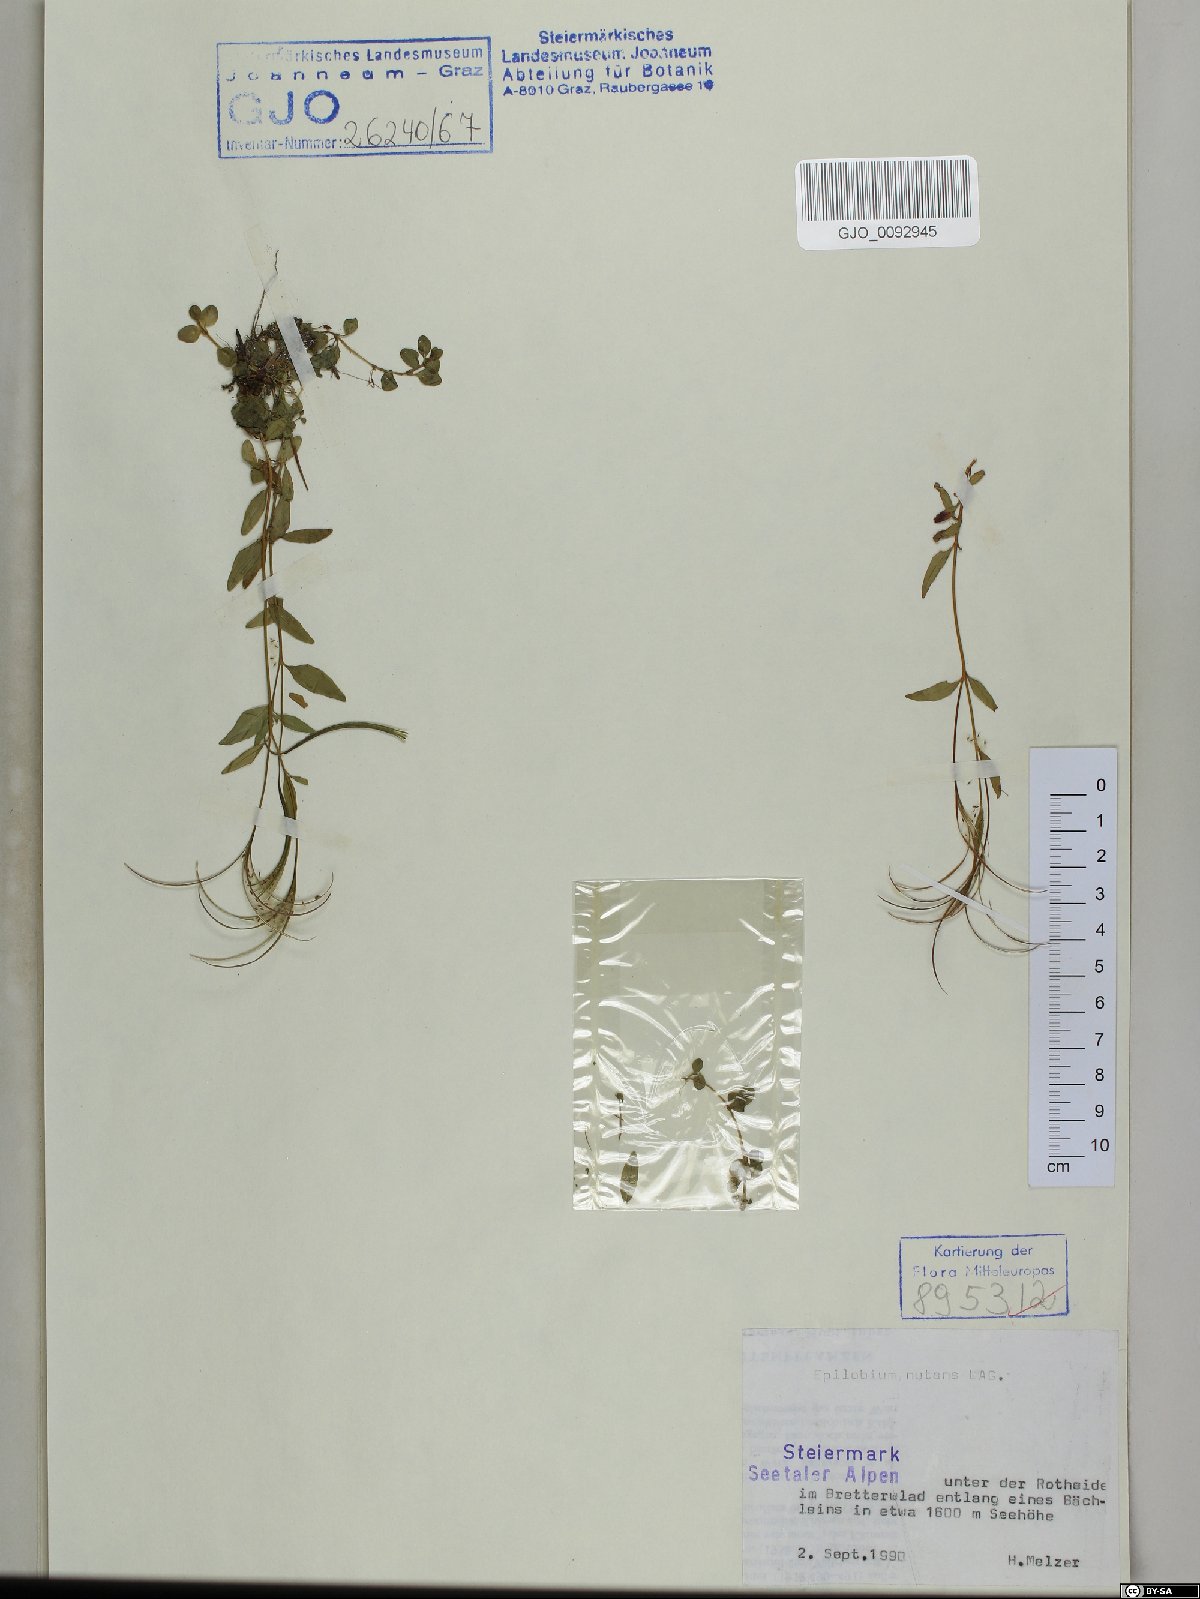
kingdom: Plantae
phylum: Tracheophyta
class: Magnoliopsida
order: Myrtales
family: Onagraceae
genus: Epilobium
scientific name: Epilobium nutans
